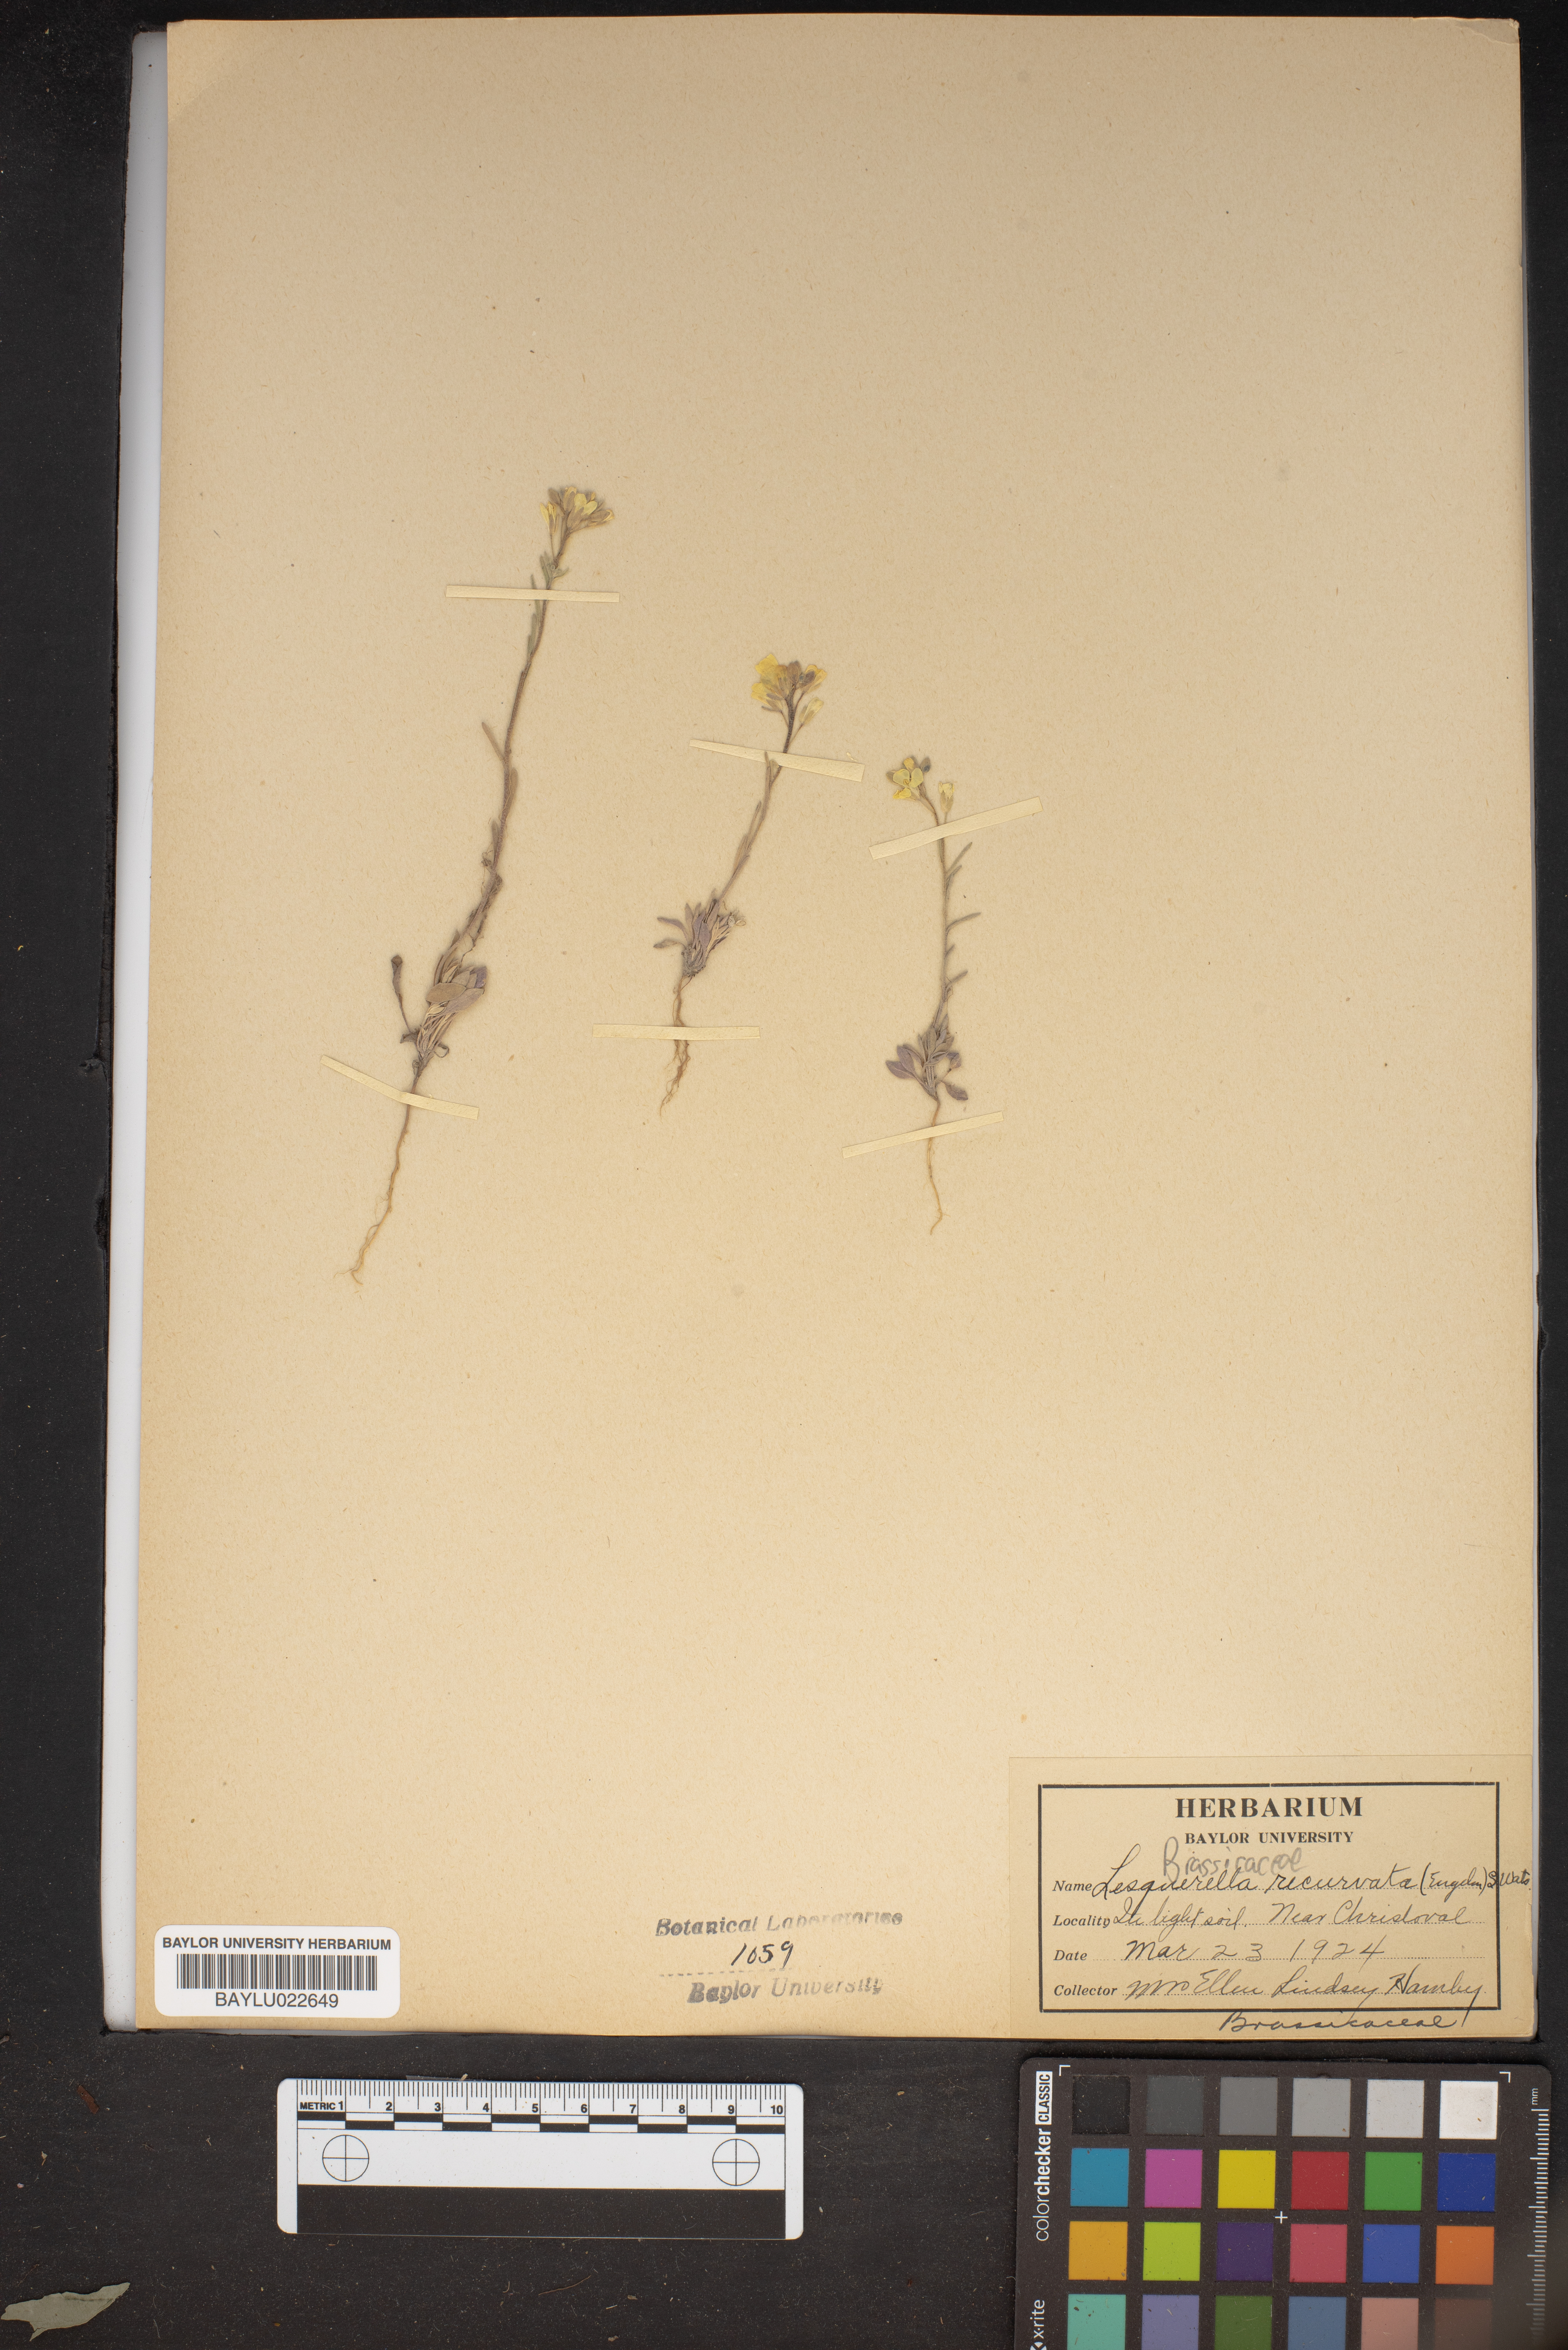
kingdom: Plantae
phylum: Tracheophyta
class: Magnoliopsida
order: Brassicales
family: Brassicaceae
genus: Physaria
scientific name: Physaria recurvata
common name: Gaslight bladderpod
